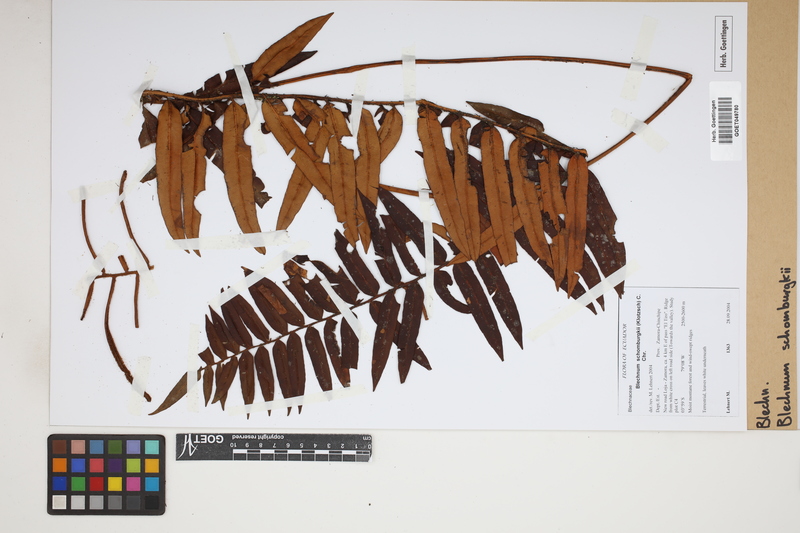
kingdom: Plantae
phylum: Tracheophyta
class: Polypodiopsida
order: Polypodiales
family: Blechnaceae
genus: Lomariocycas
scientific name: Lomariocycas schomburgkii
